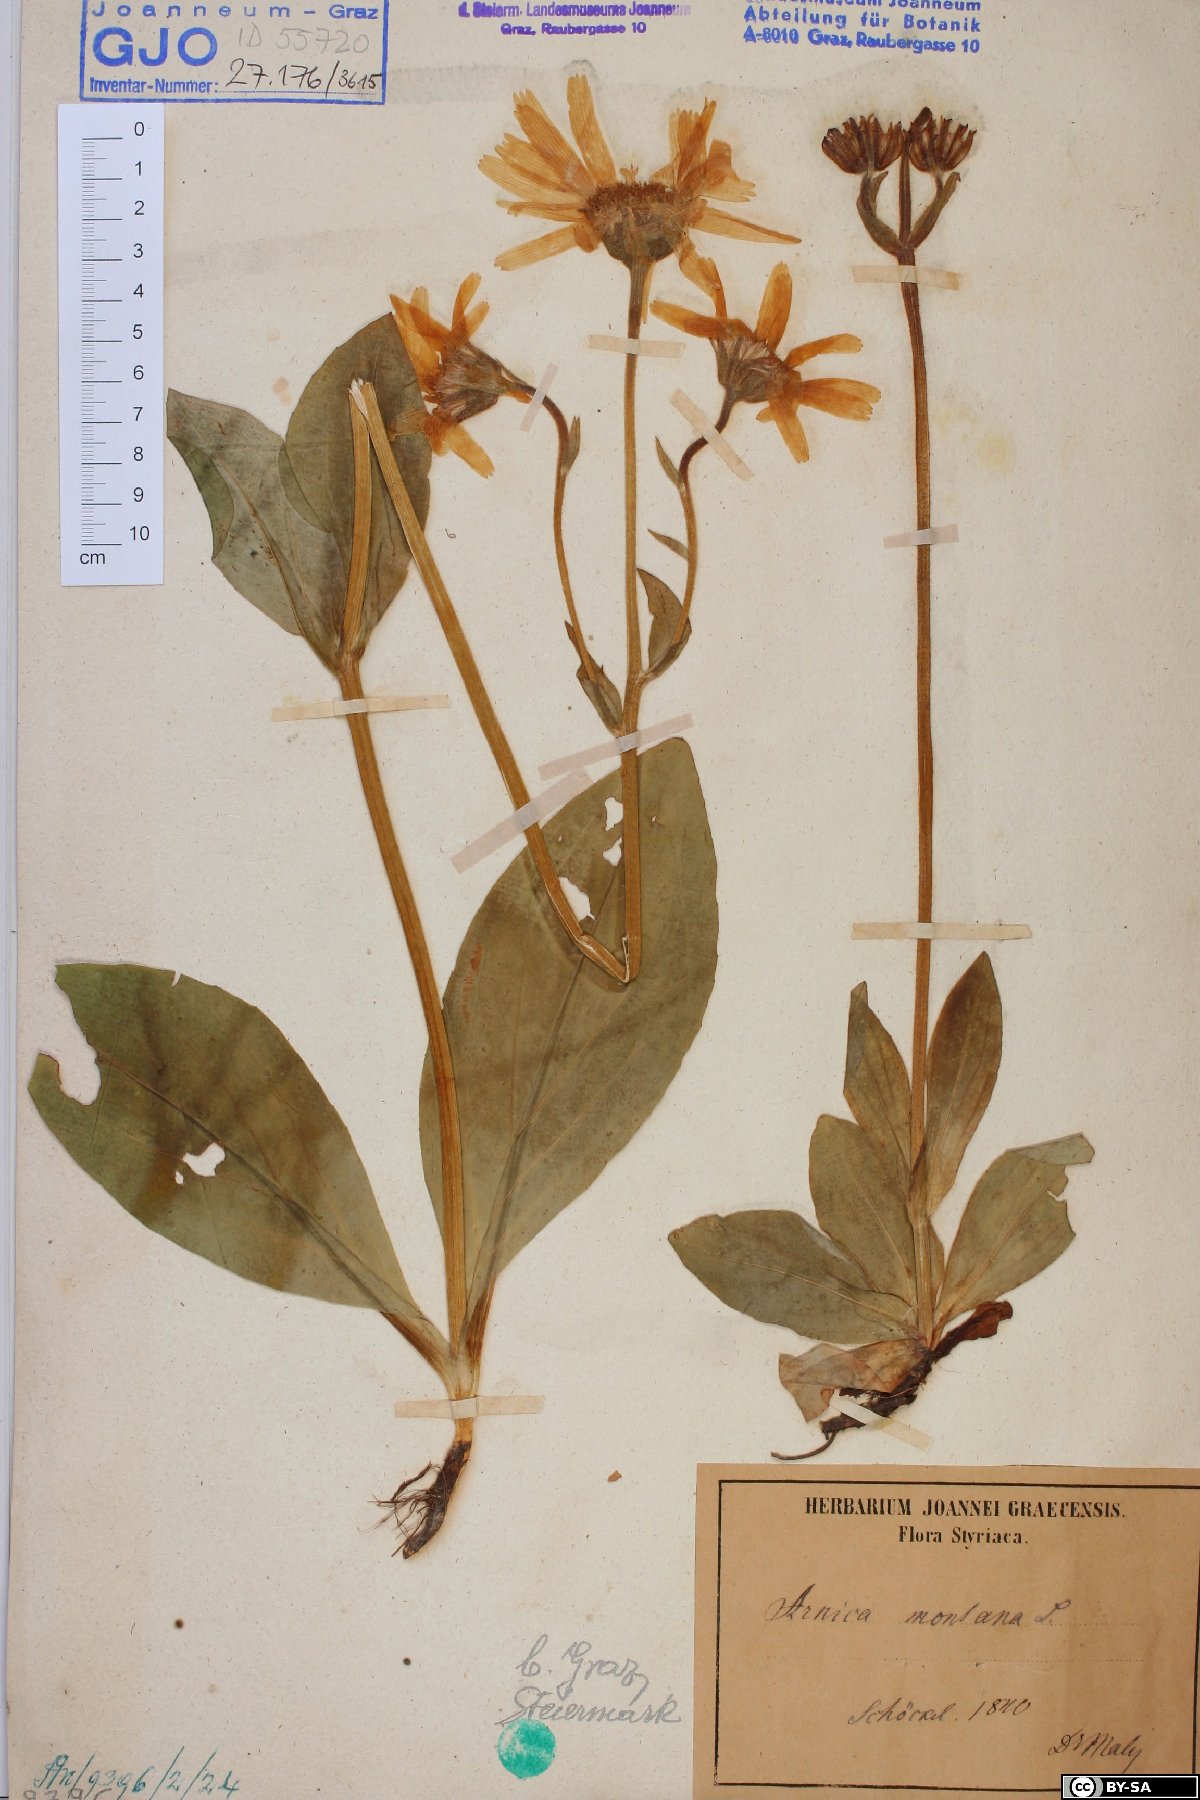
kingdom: Plantae
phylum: Tracheophyta
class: Magnoliopsida
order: Asterales
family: Asteraceae
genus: Arnica
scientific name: Arnica montana
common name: Leopard's bane
